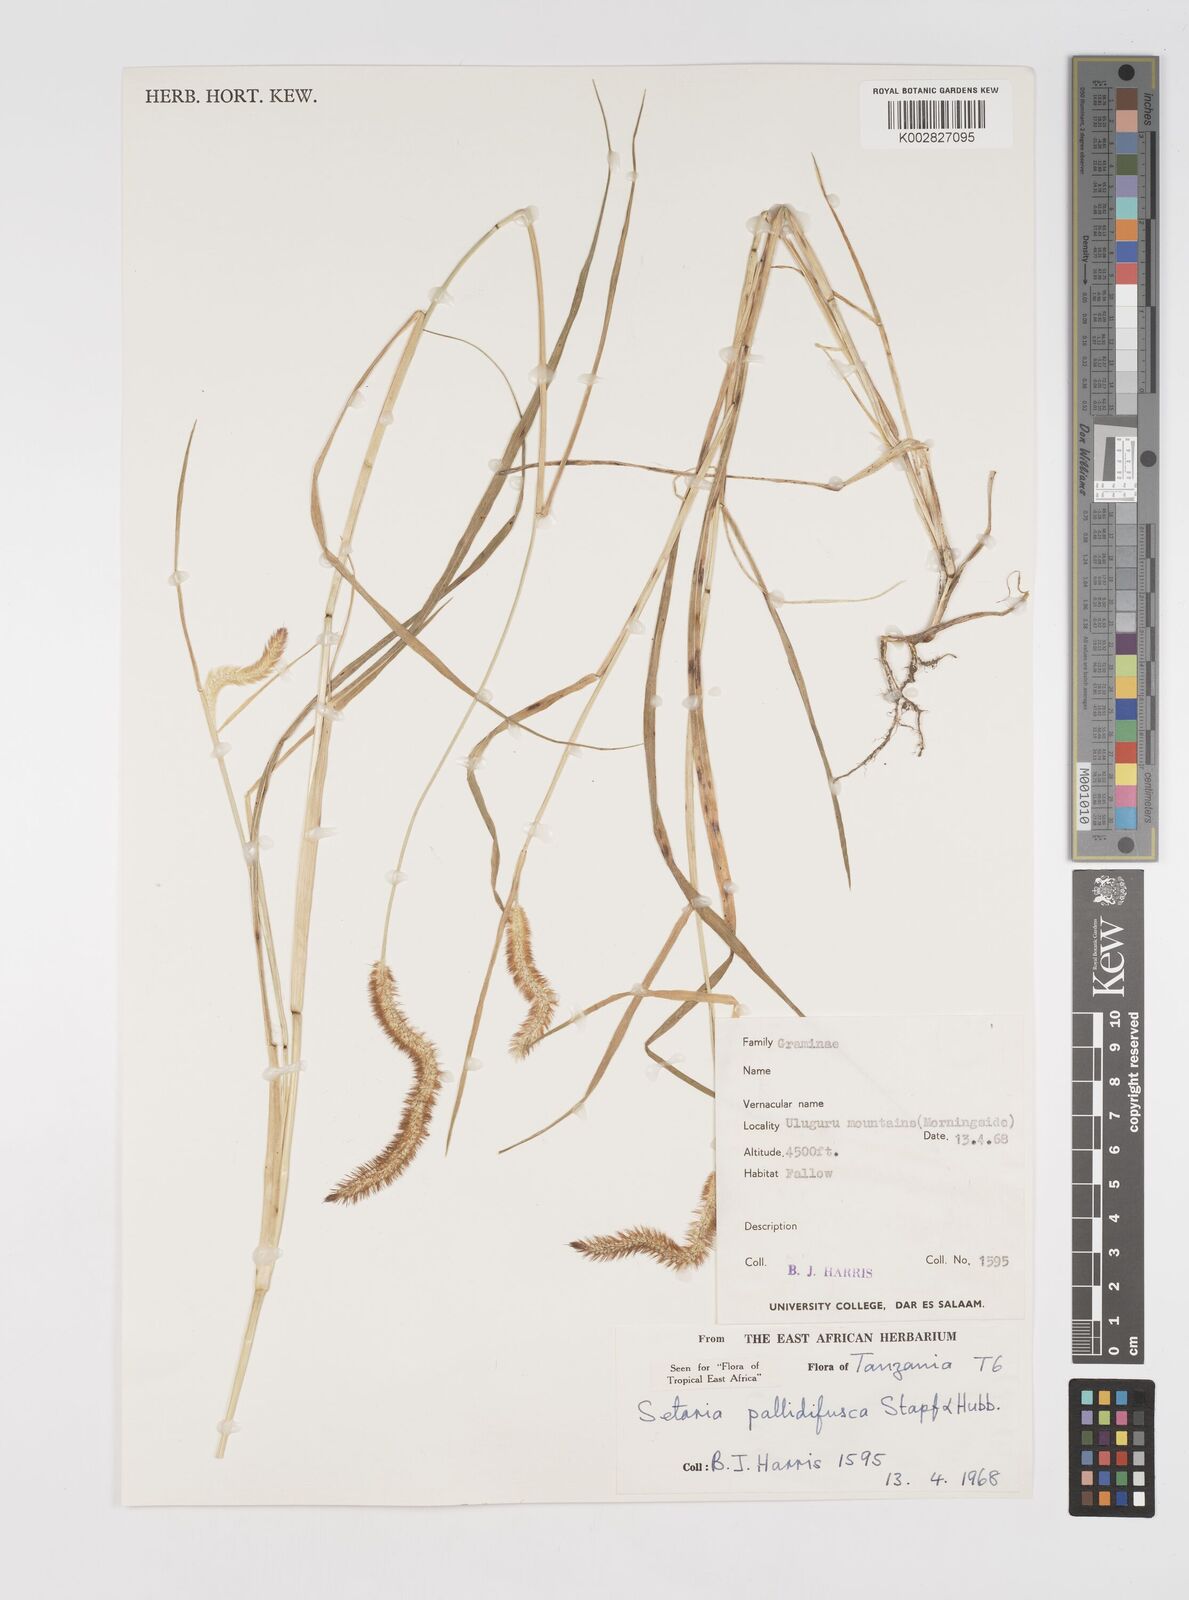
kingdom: Plantae
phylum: Tracheophyta
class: Liliopsida
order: Poales
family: Poaceae
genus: Setaria
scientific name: Setaria pumila
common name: Yellow bristle-grass
